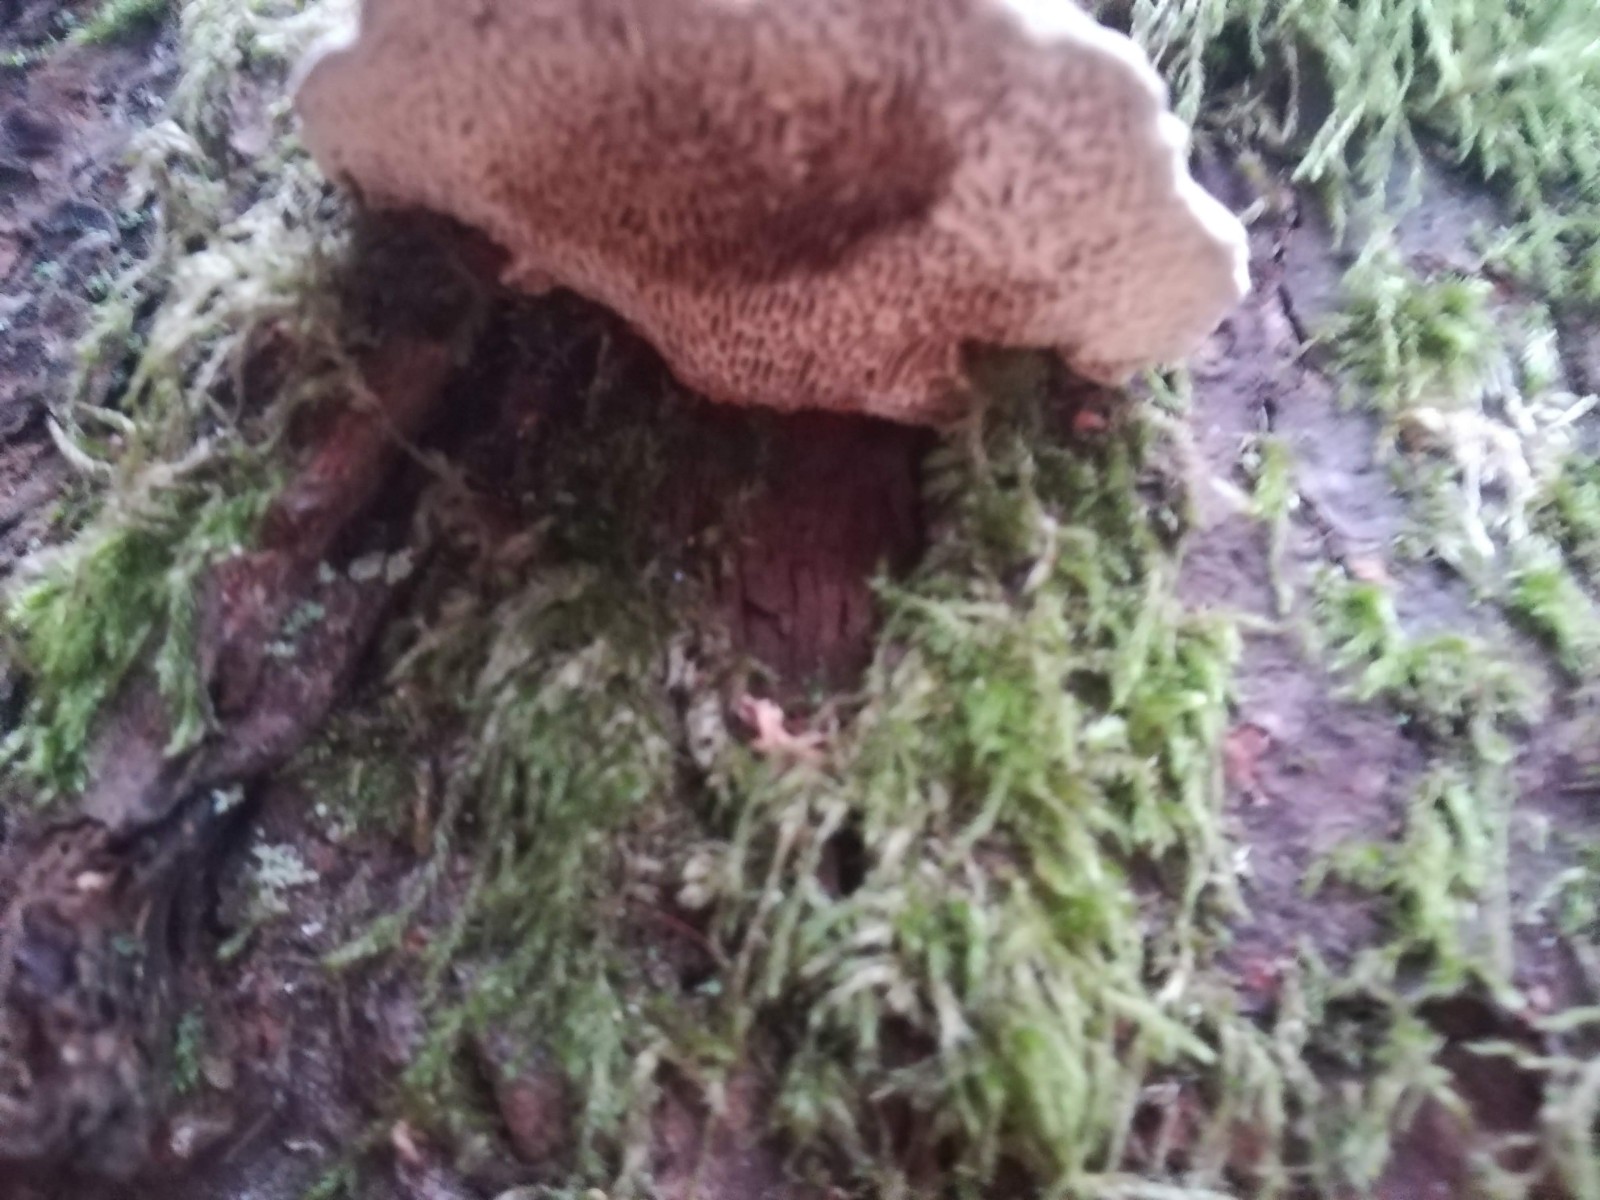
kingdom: Fungi
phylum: Basidiomycota
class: Agaricomycetes
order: Polyporales
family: Polyporaceae
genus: Daedaleopsis
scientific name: Daedaleopsis confragosa
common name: rødmende læderporesvamp
